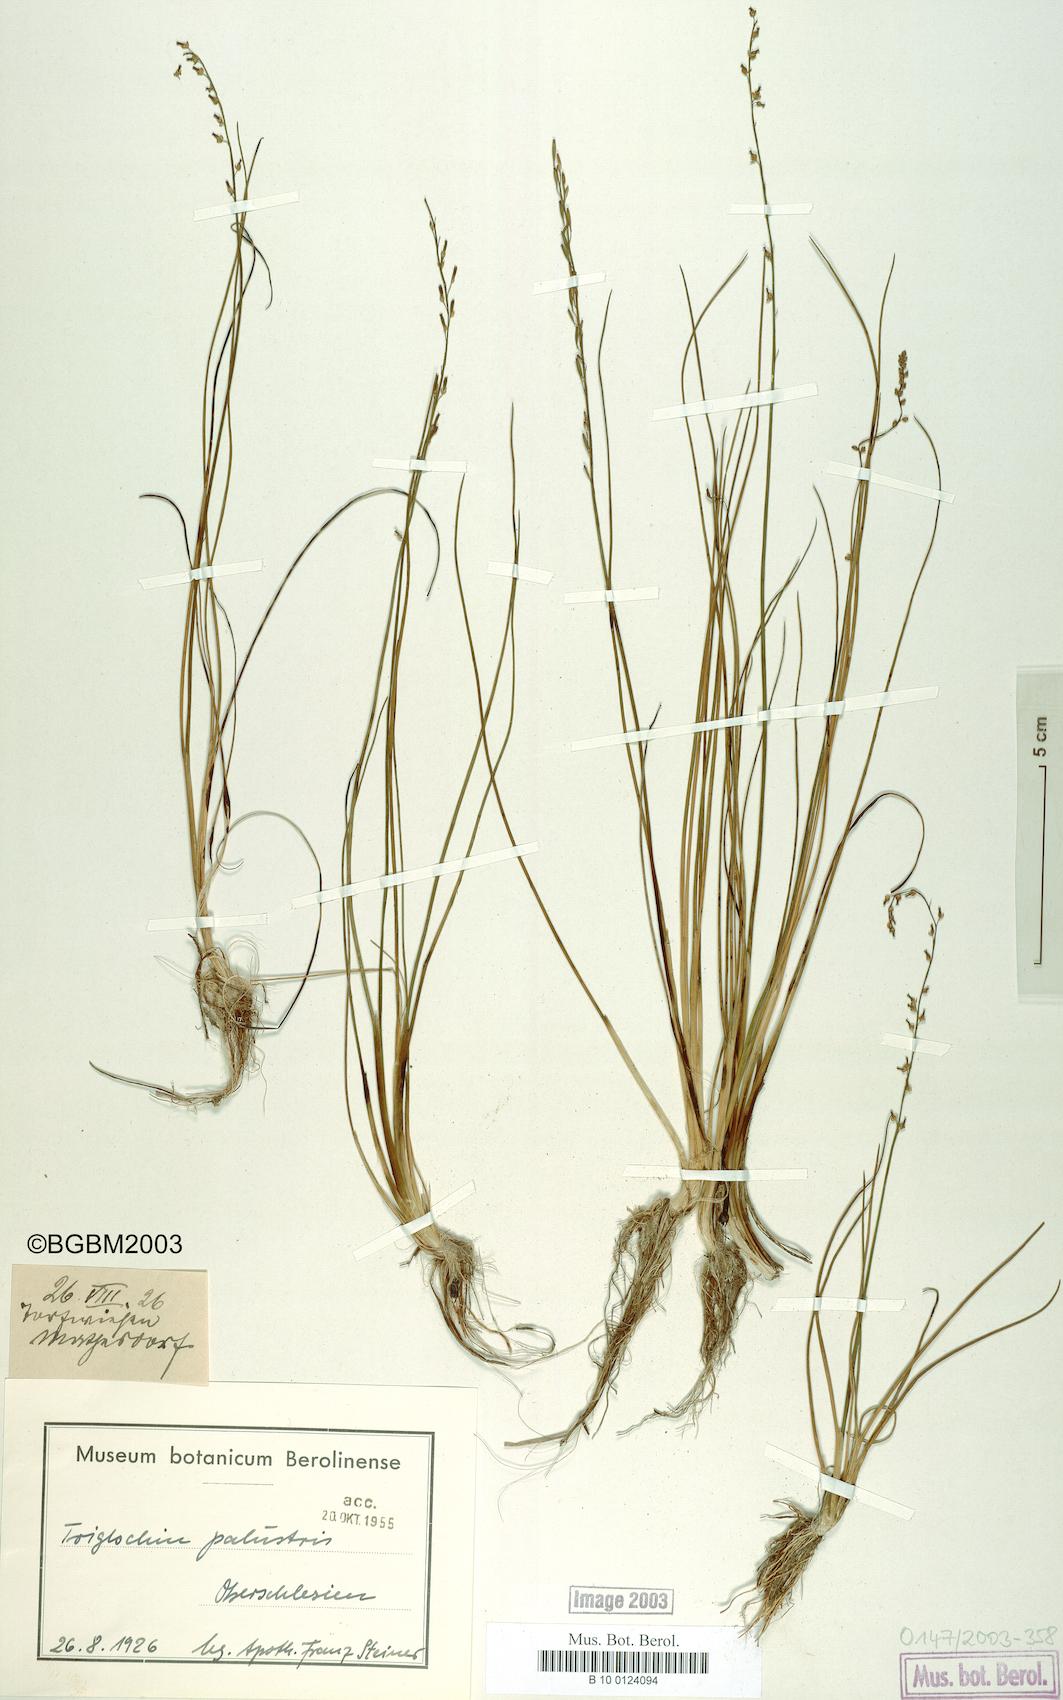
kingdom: Plantae
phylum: Tracheophyta
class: Liliopsida
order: Alismatales
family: Juncaginaceae
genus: Triglochin
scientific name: Triglochin palustris
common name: Marsh arrowgrass
